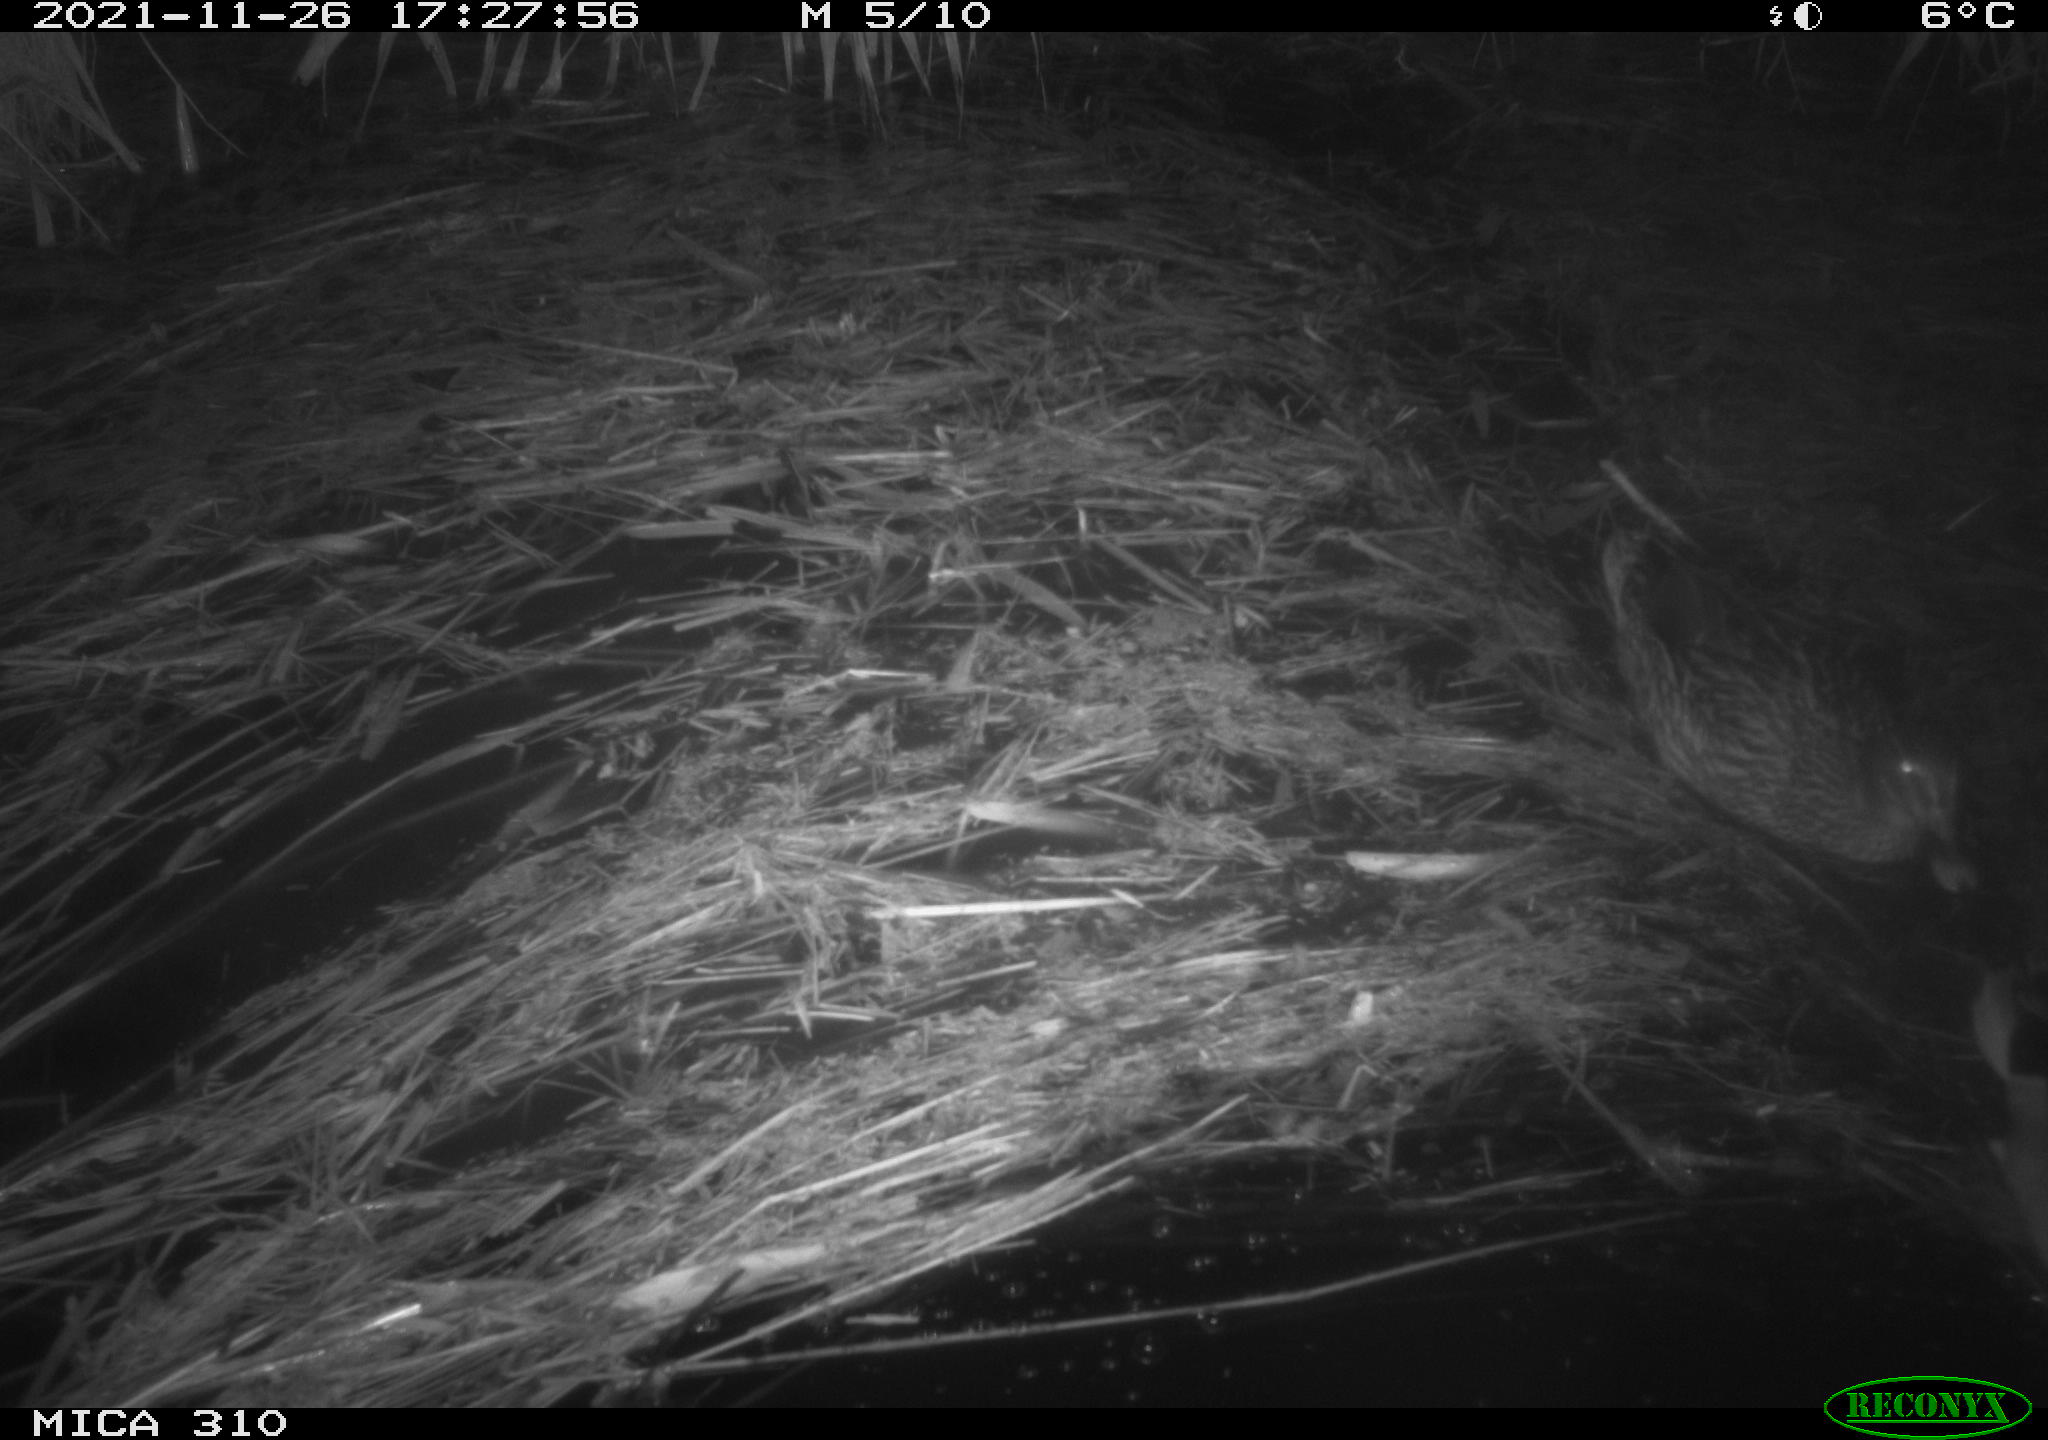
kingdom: Animalia
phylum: Chordata
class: Aves
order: Anseriformes
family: Anatidae
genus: Anas
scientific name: Anas platyrhynchos
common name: Mallard
